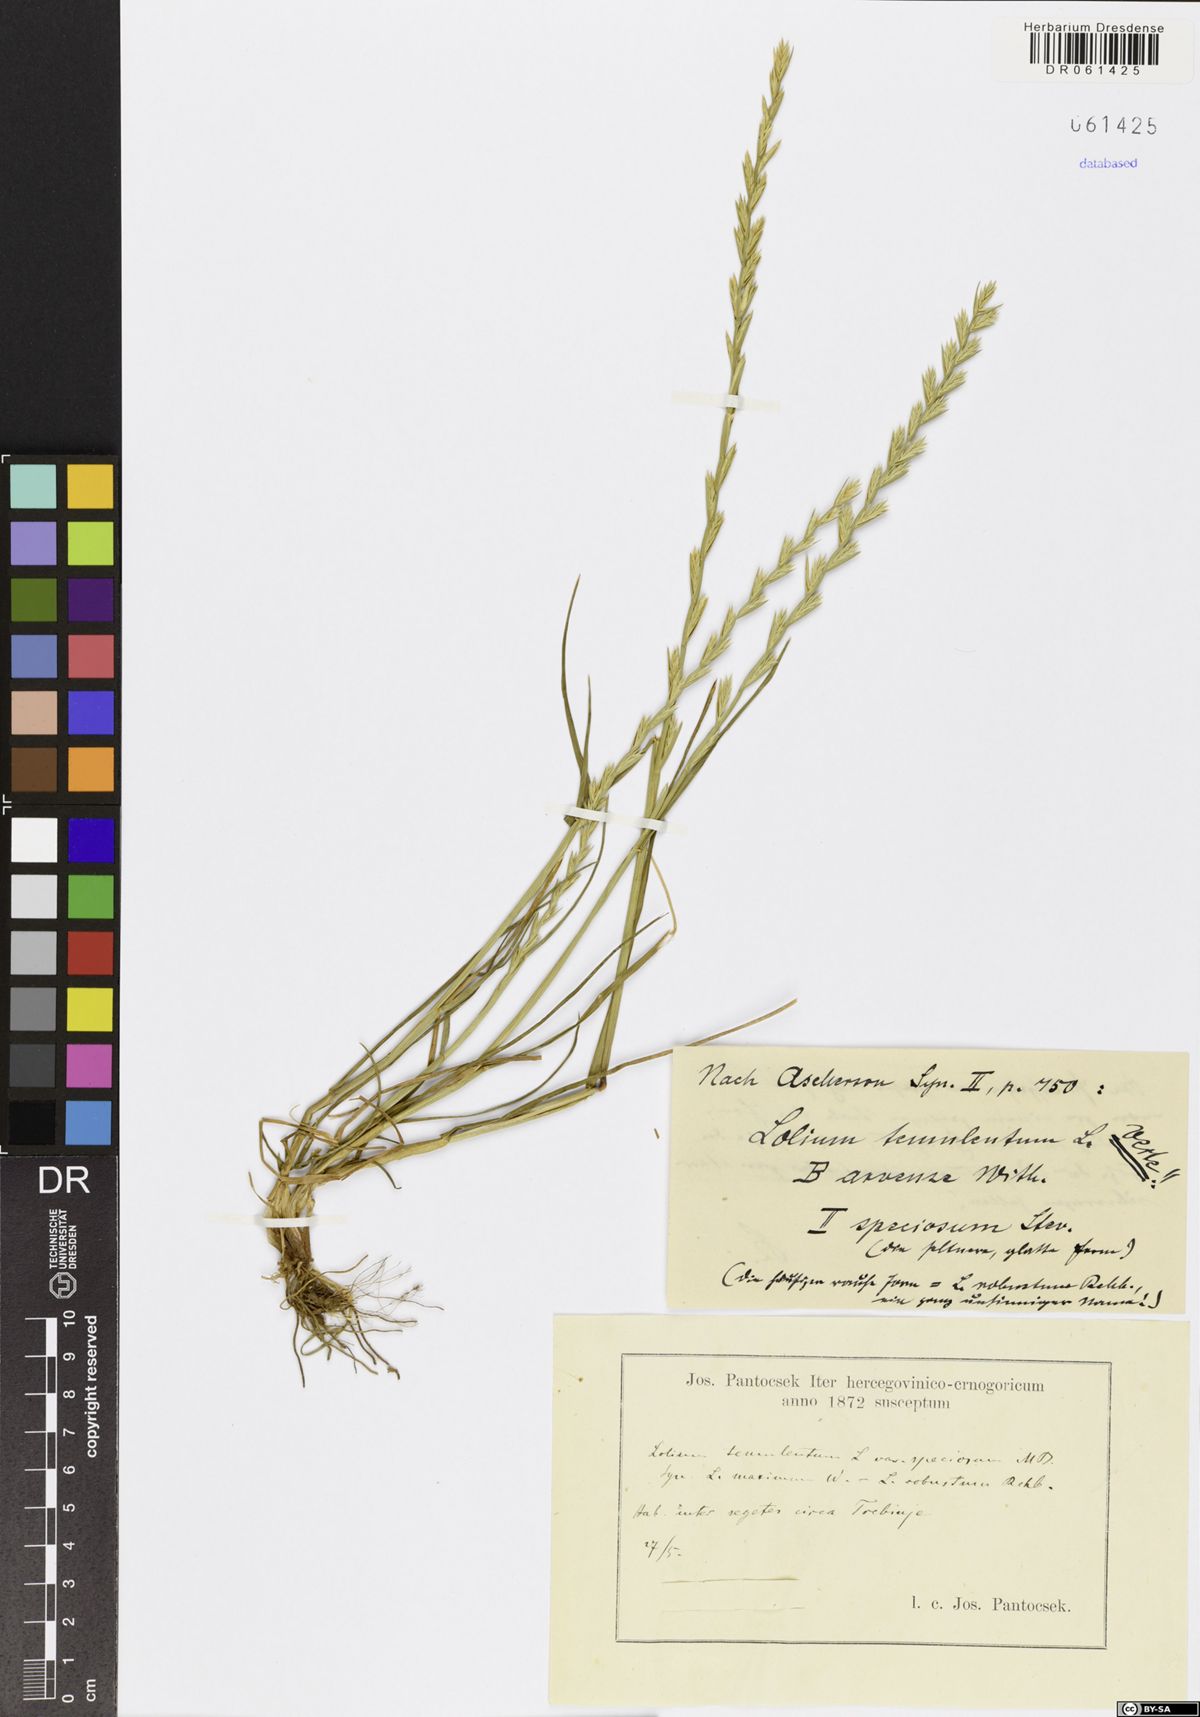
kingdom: Plantae
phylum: Tracheophyta
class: Liliopsida
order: Poales
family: Poaceae
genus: Lolium
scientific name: Lolium temulentum
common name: Darnel
